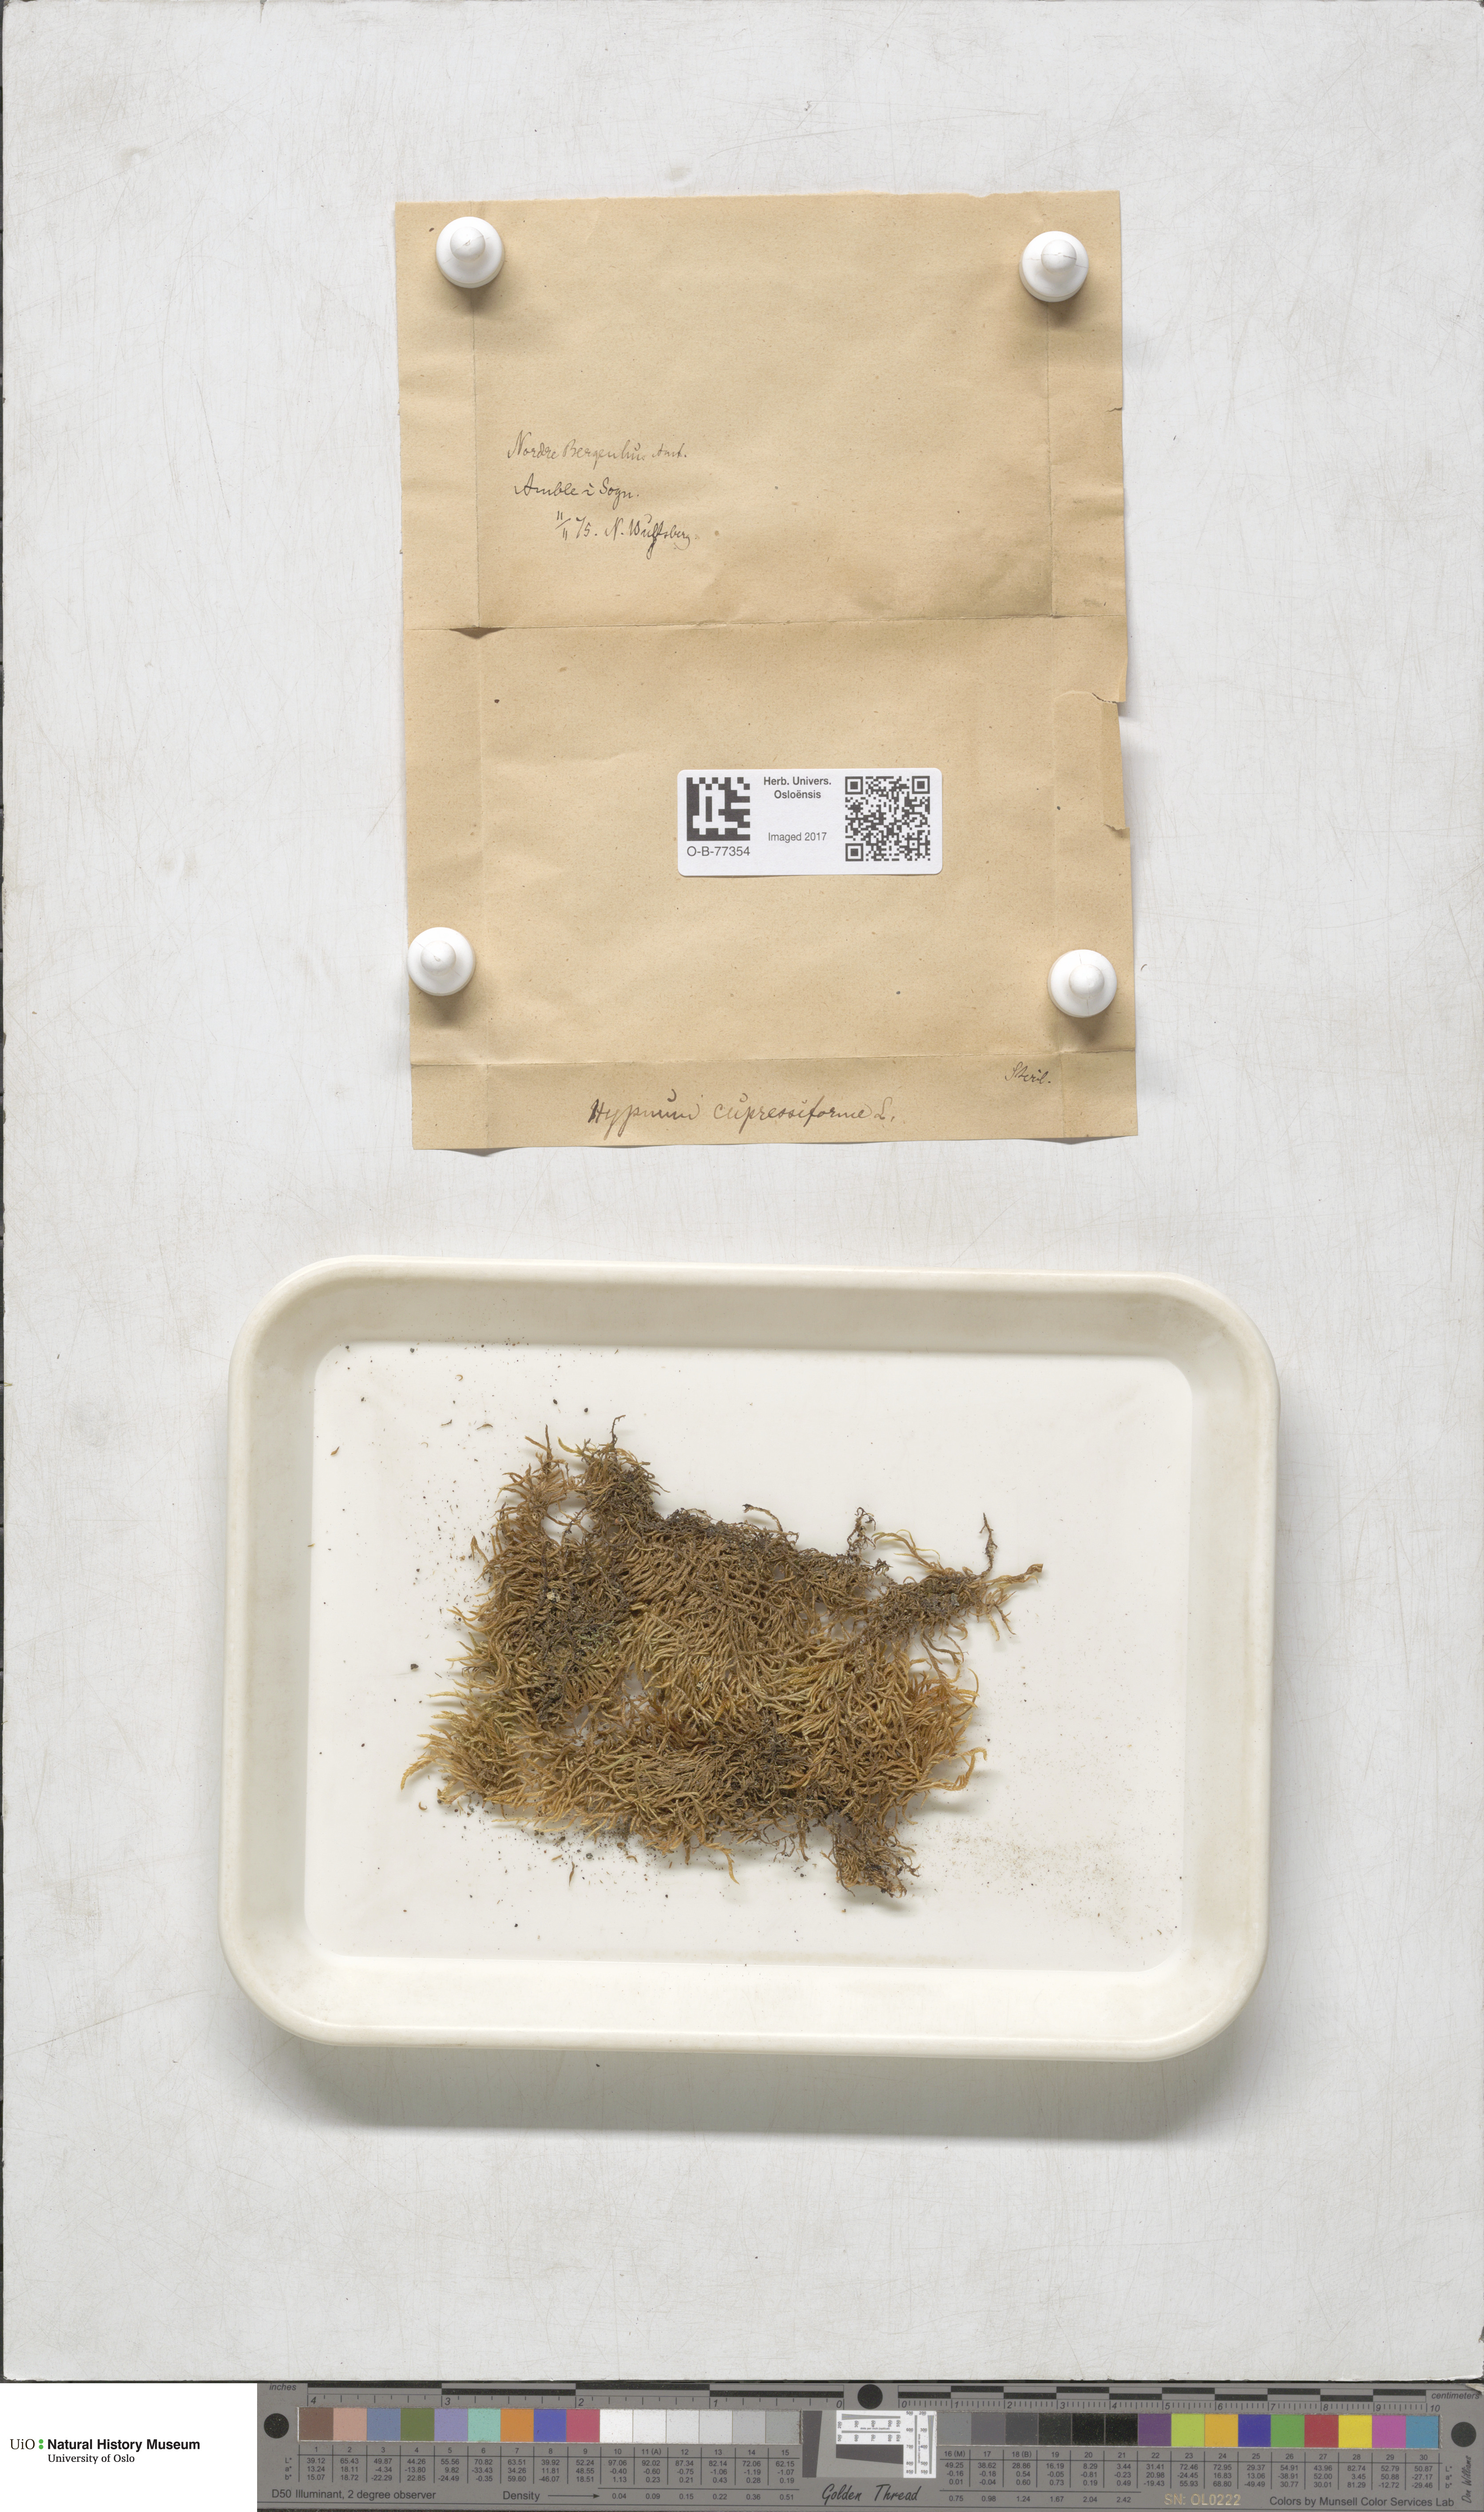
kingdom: Plantae
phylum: Bryophyta
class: Bryopsida
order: Hypnales
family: Hypnaceae
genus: Hypnum
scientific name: Hypnum cupressiforme
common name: Cypress-leaved plait-moss
